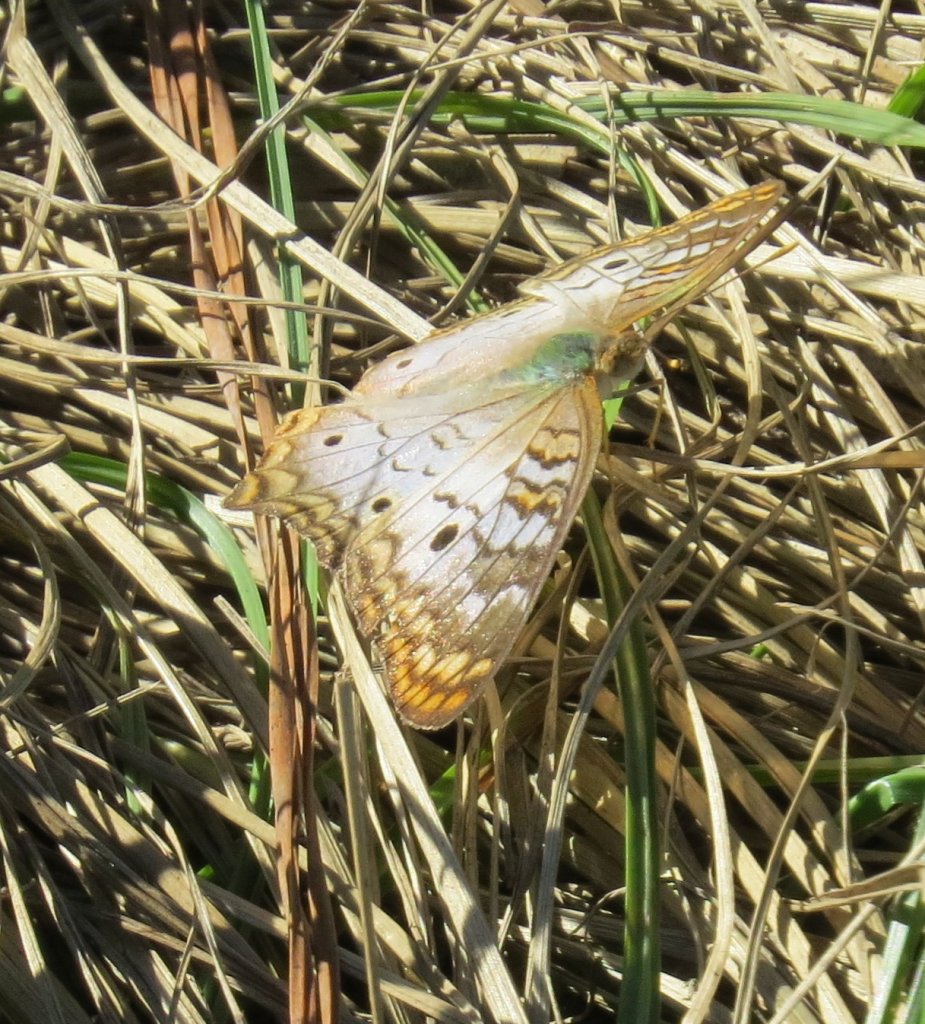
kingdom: Animalia
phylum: Arthropoda
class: Insecta
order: Lepidoptera
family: Nymphalidae
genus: Anartia
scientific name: Anartia jatrophae
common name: White Peacock
